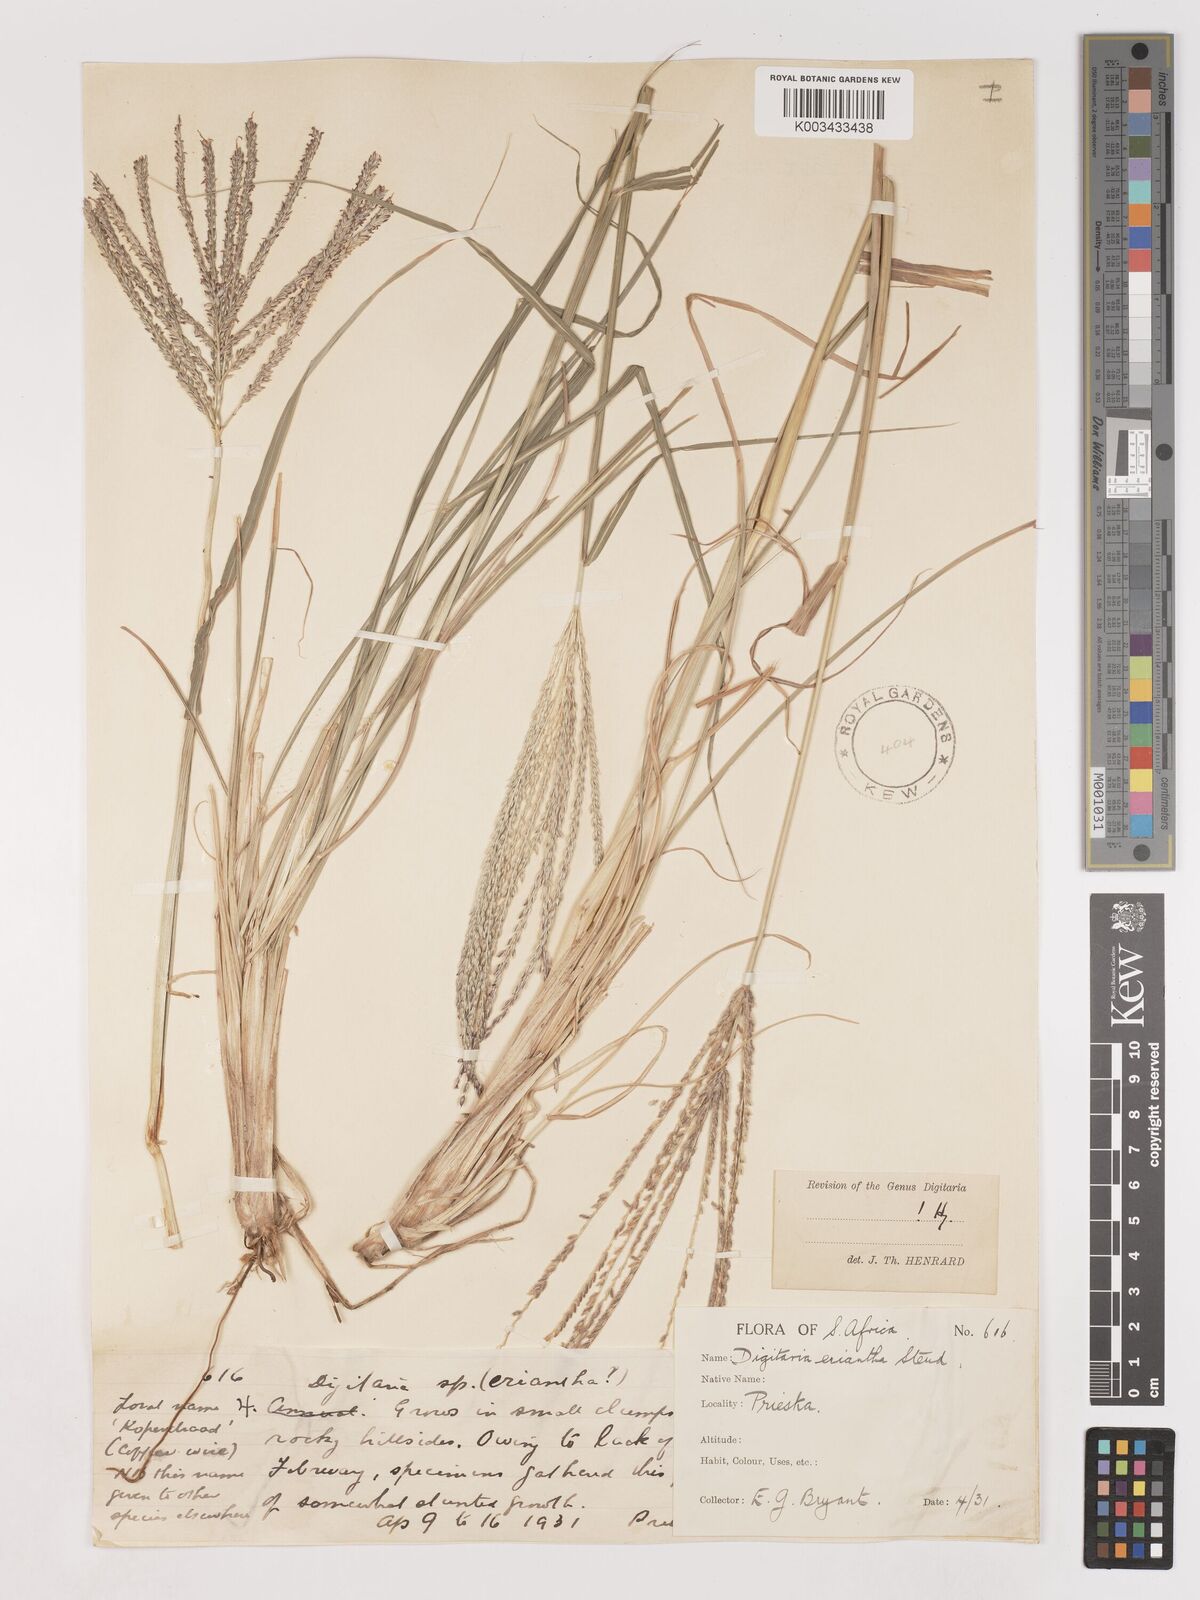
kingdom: Plantae
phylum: Tracheophyta
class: Liliopsida
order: Poales
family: Poaceae
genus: Digitaria
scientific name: Digitaria eriantha
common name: Digitgrass
